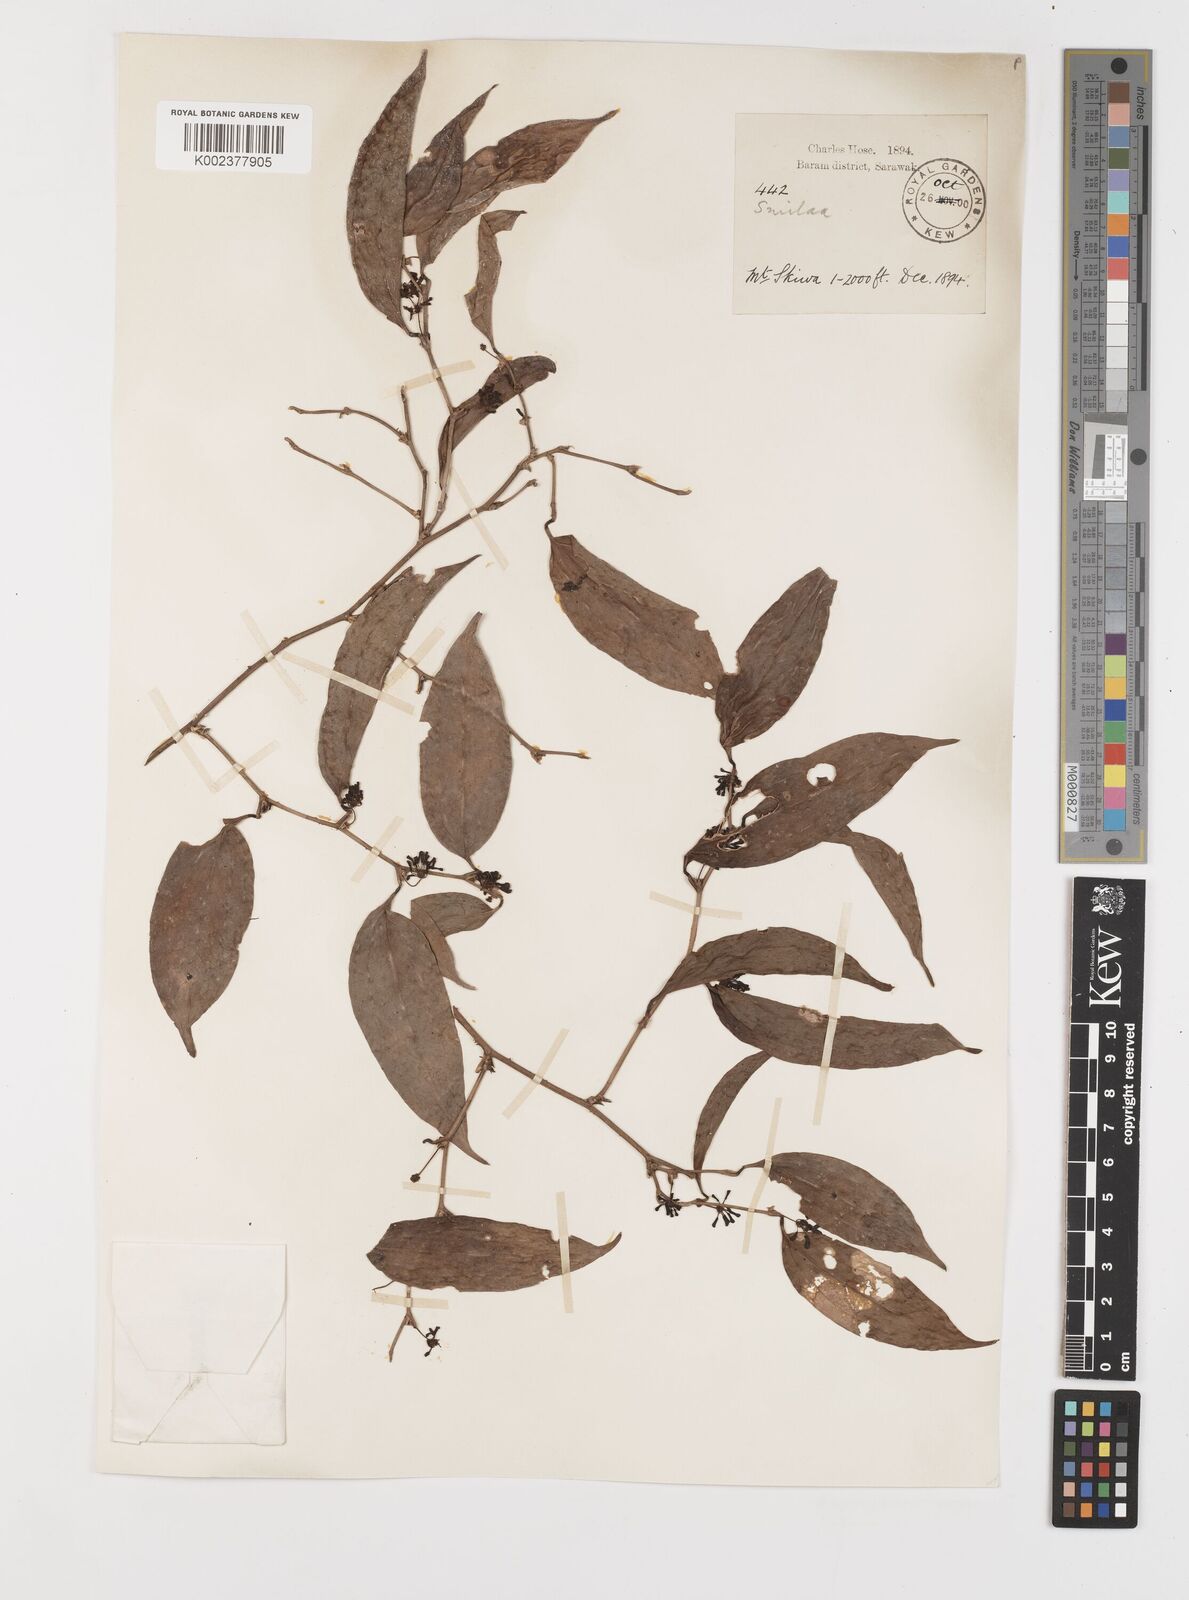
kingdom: Plantae
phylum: Tracheophyta
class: Liliopsida
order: Liliales
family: Smilacaceae
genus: Smilax
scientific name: Smilax
